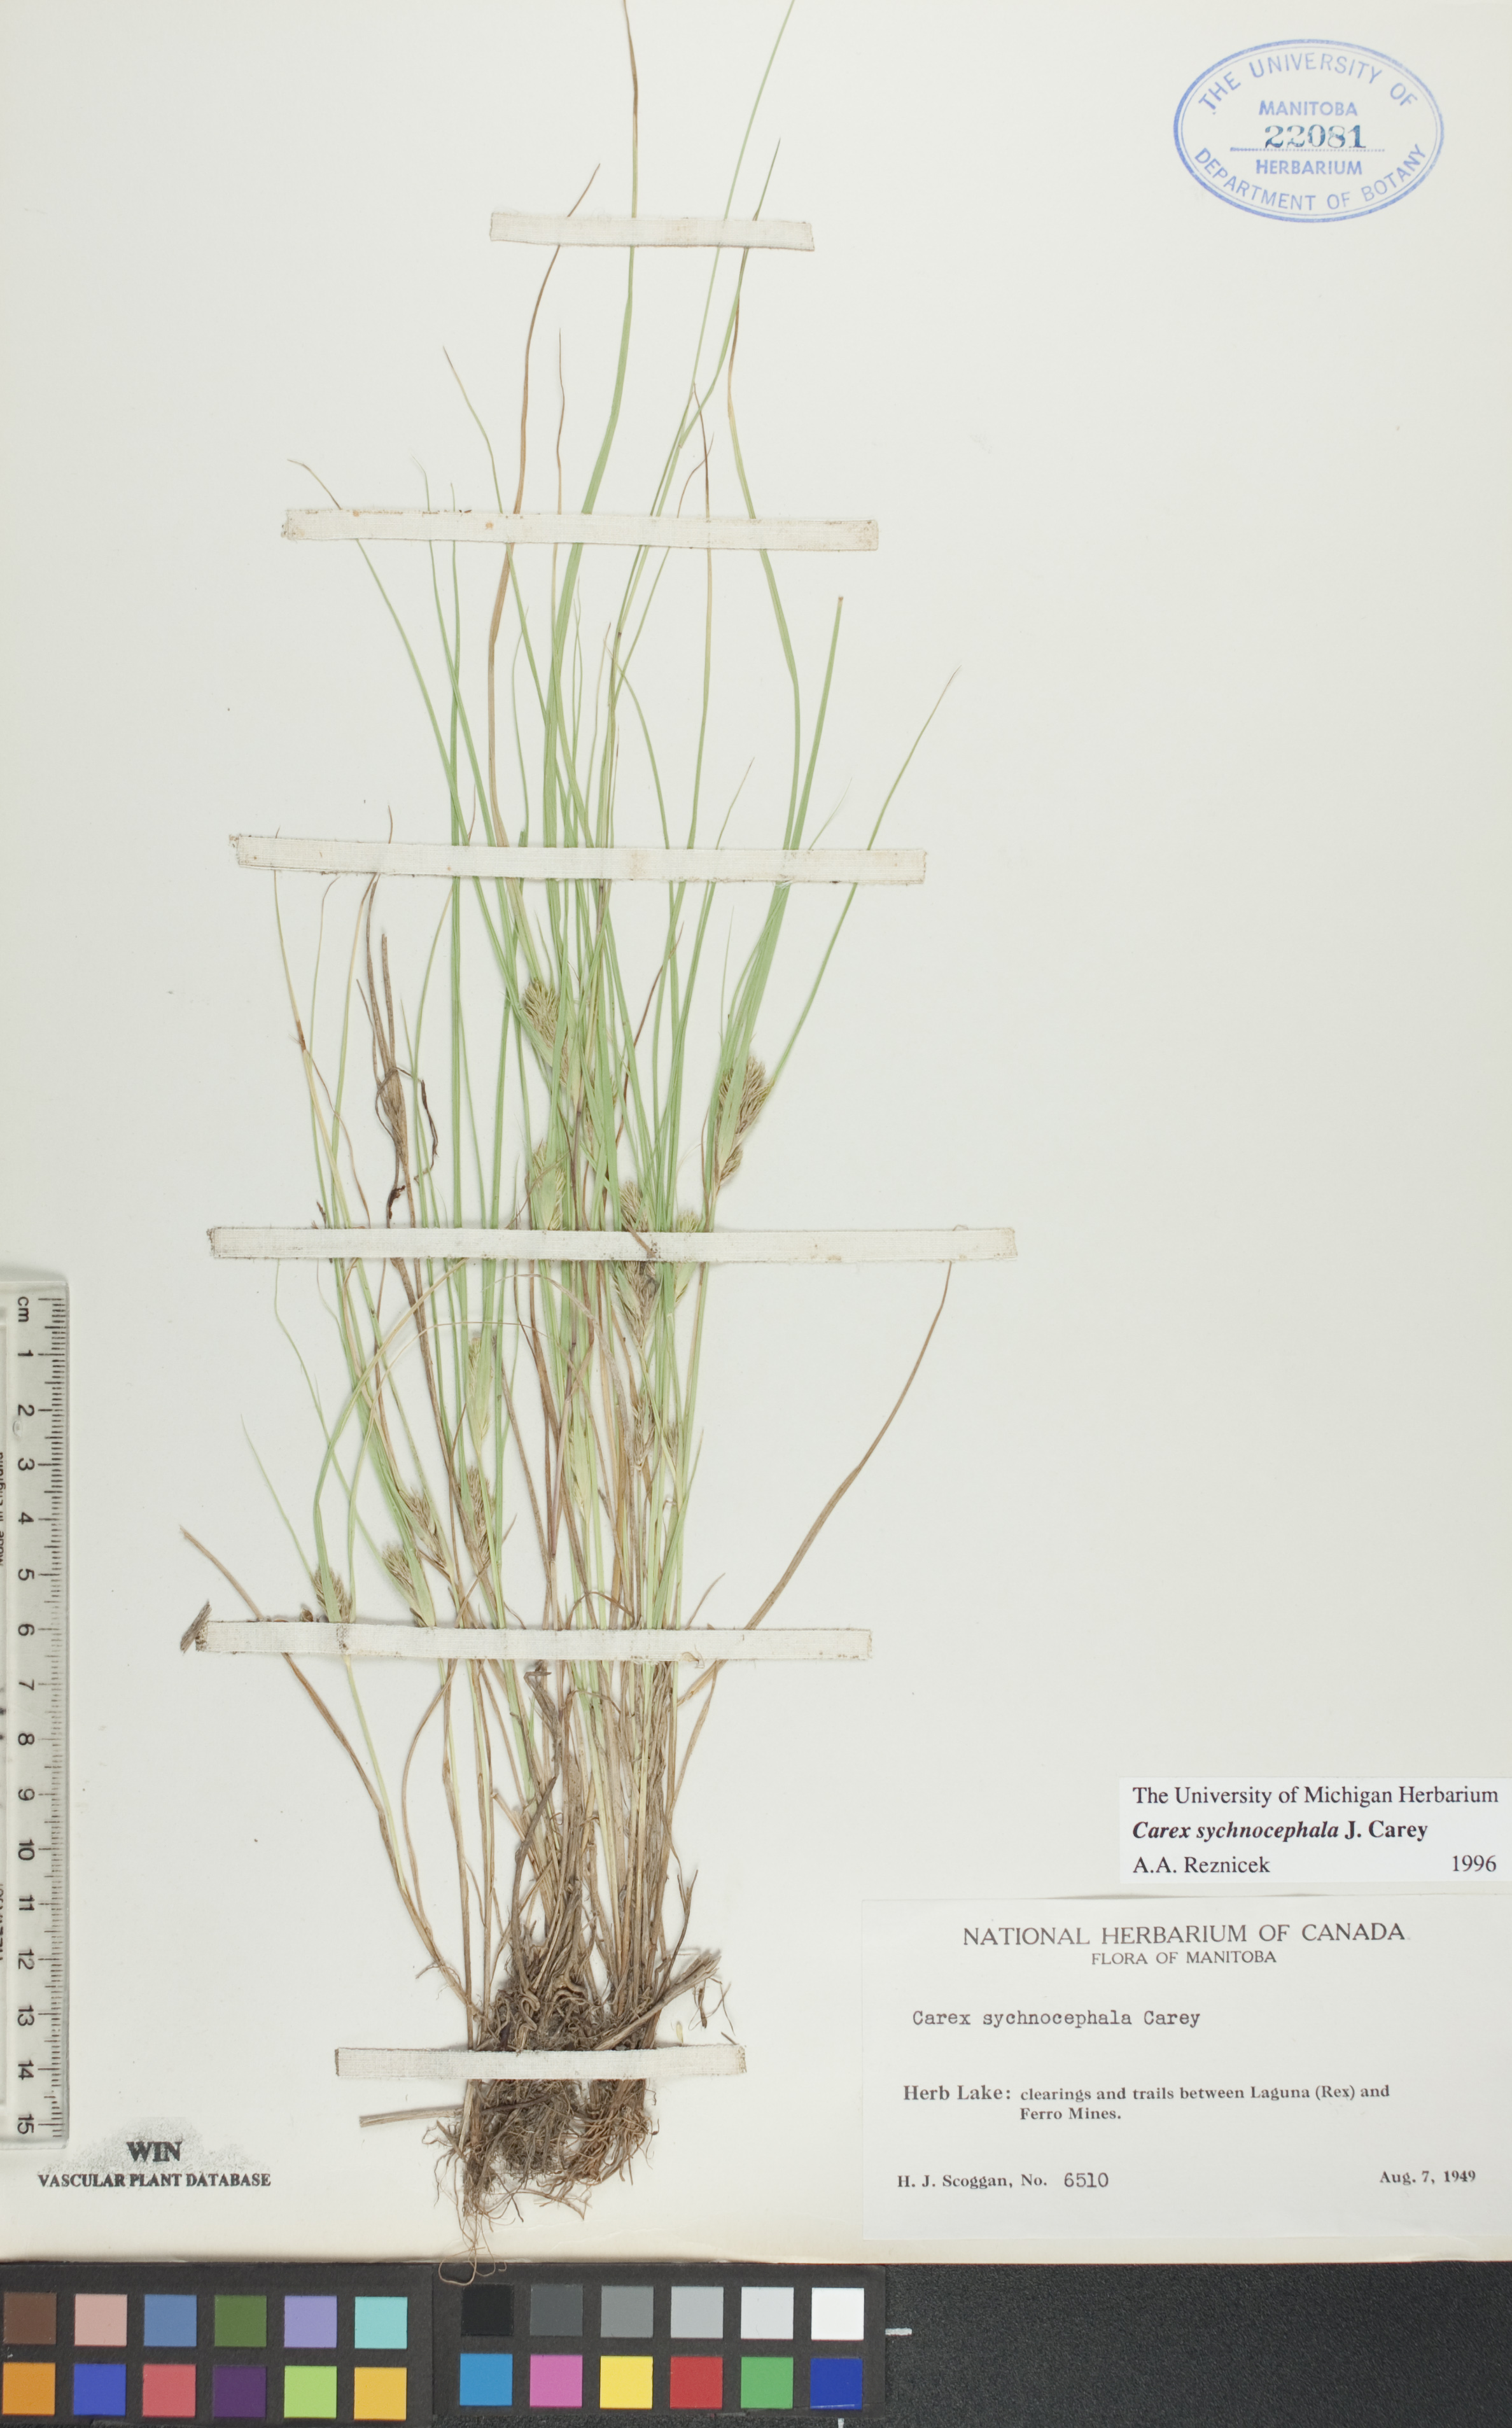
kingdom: Plantae
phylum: Tracheophyta
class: Liliopsida
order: Poales
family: Cyperaceae
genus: Carex
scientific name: Carex sychnocephala
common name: Dense long-beaked sedge
